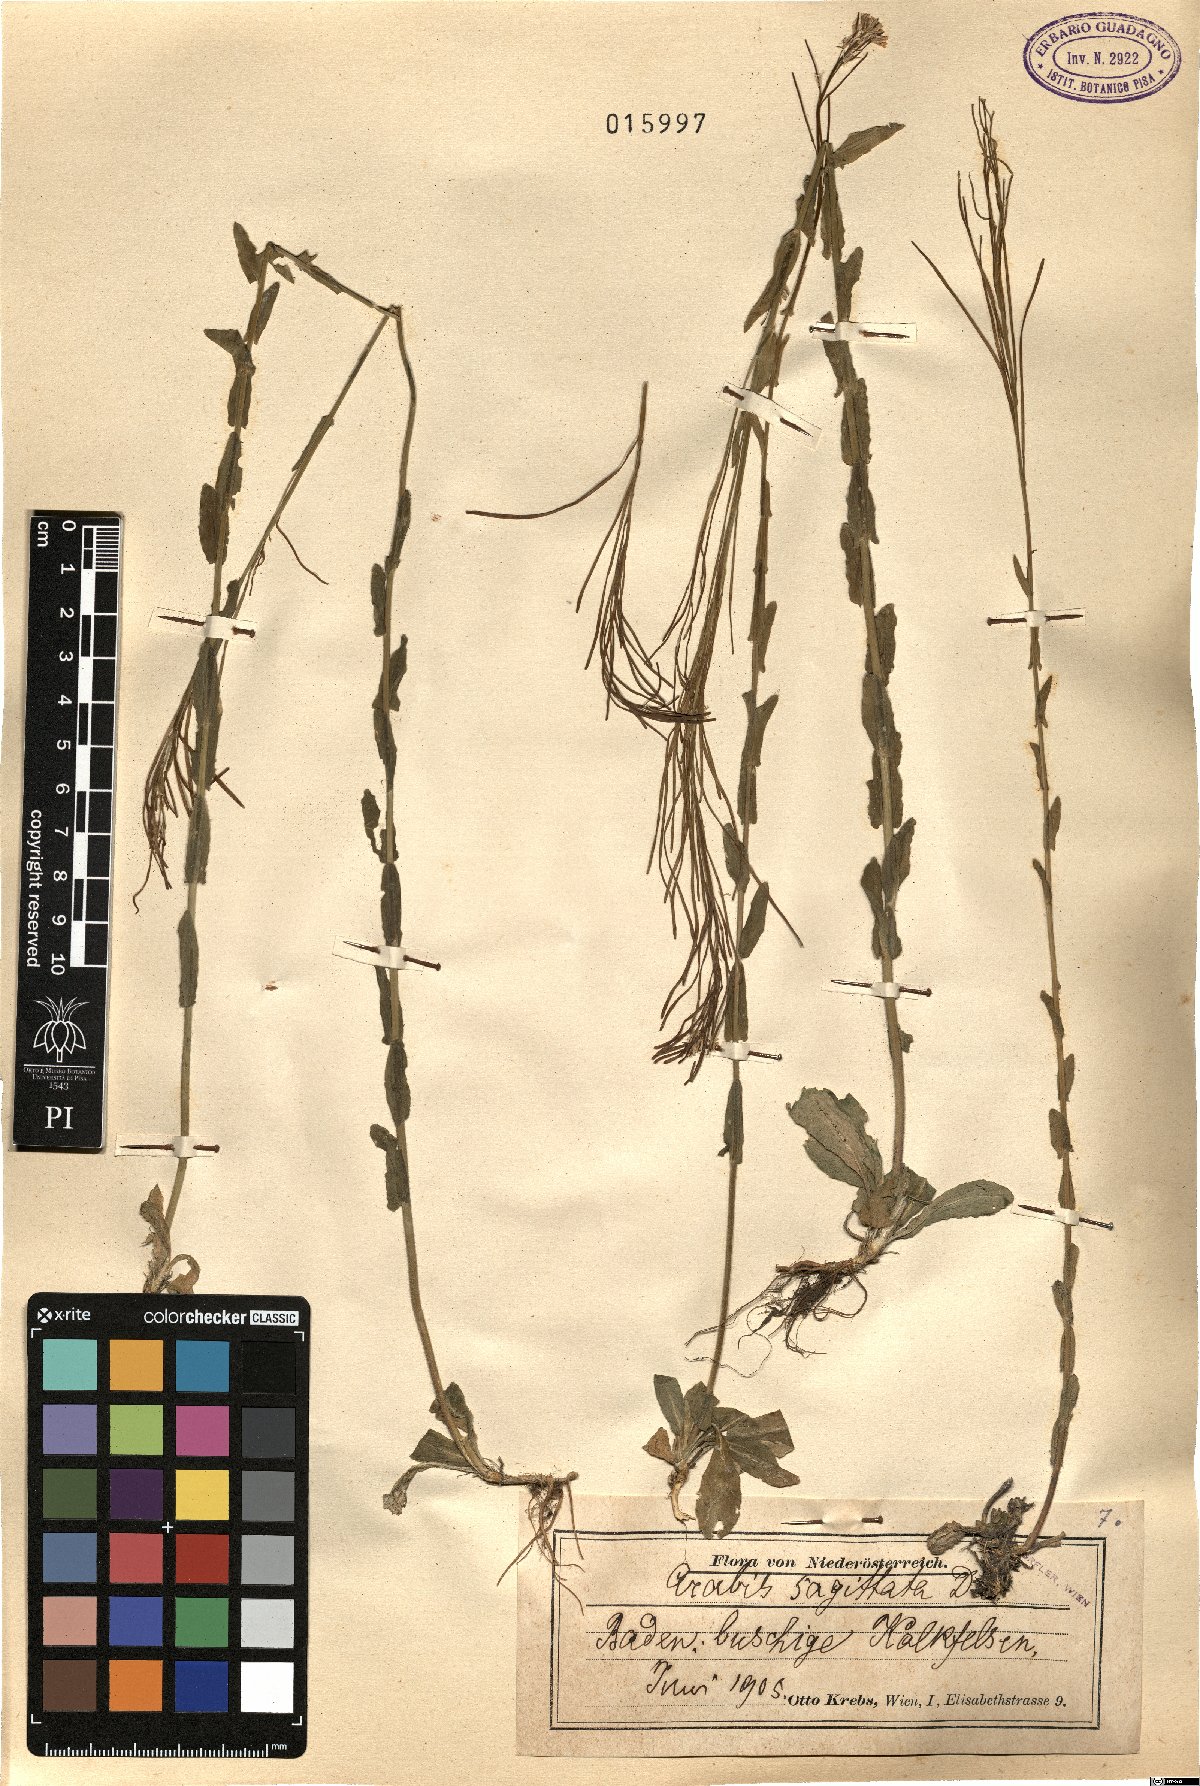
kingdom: Plantae
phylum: Tracheophyta
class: Magnoliopsida
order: Brassicales
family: Brassicaceae
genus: Arabis
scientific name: Arabis sagittata
